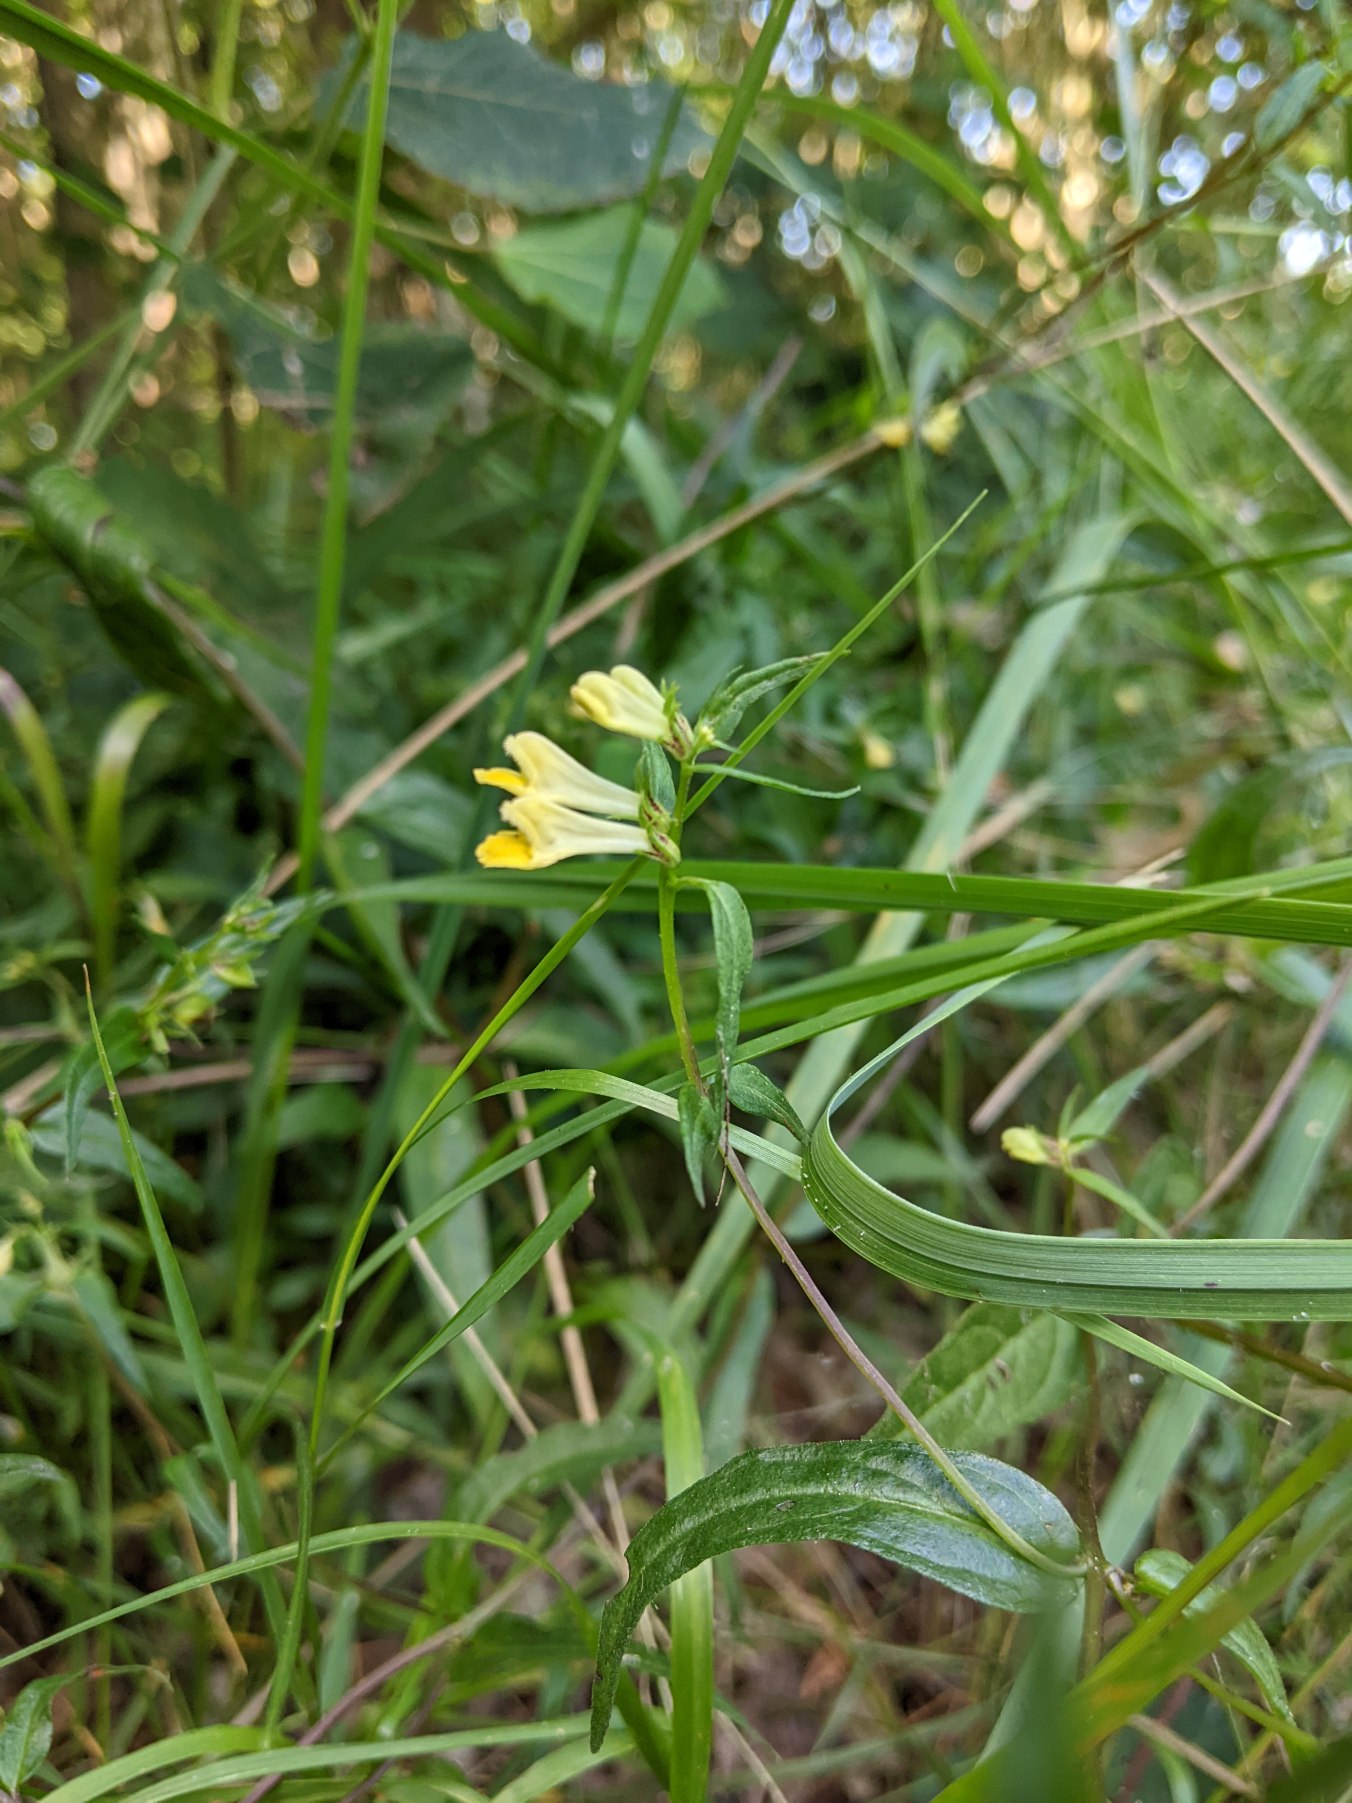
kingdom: Plantae
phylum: Tracheophyta
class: Magnoliopsida
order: Lamiales
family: Orobanchaceae
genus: Melampyrum
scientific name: Melampyrum pratense
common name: Almindelig kohvede
